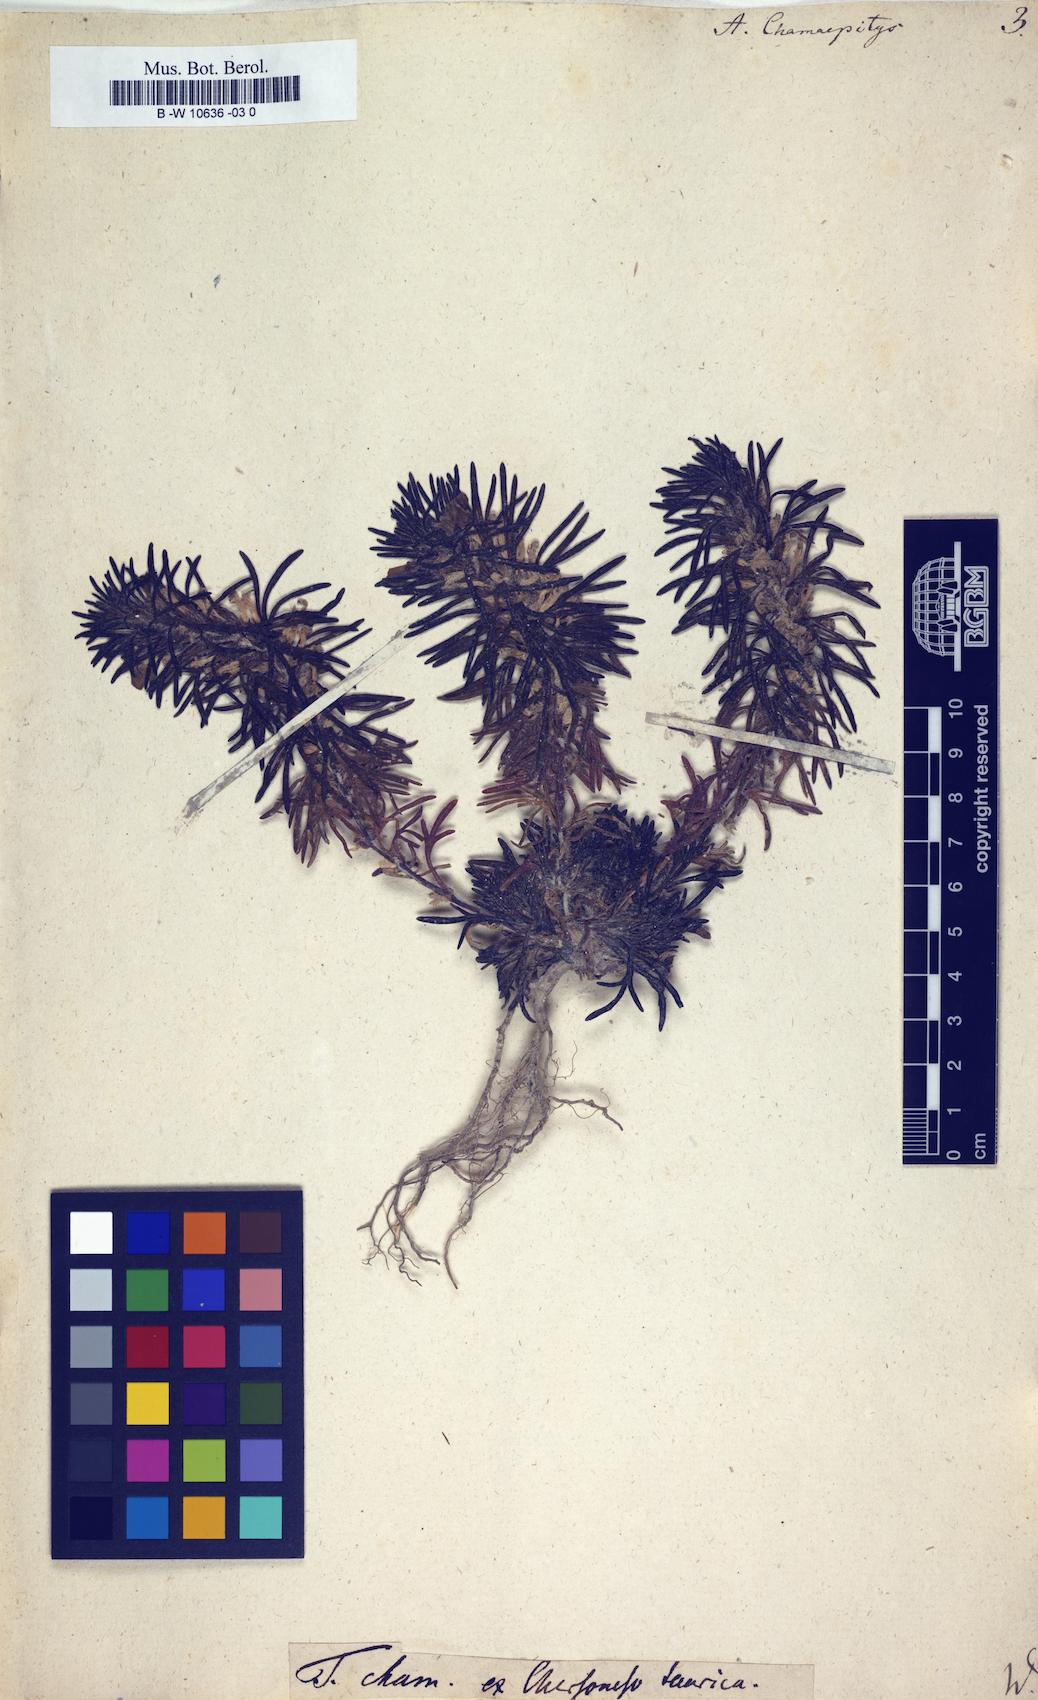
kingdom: Plantae
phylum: Tracheophyta
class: Magnoliopsida
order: Lamiales
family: Lamiaceae
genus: Ajuga
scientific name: Ajuga chamaepitys
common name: Ground-pine
